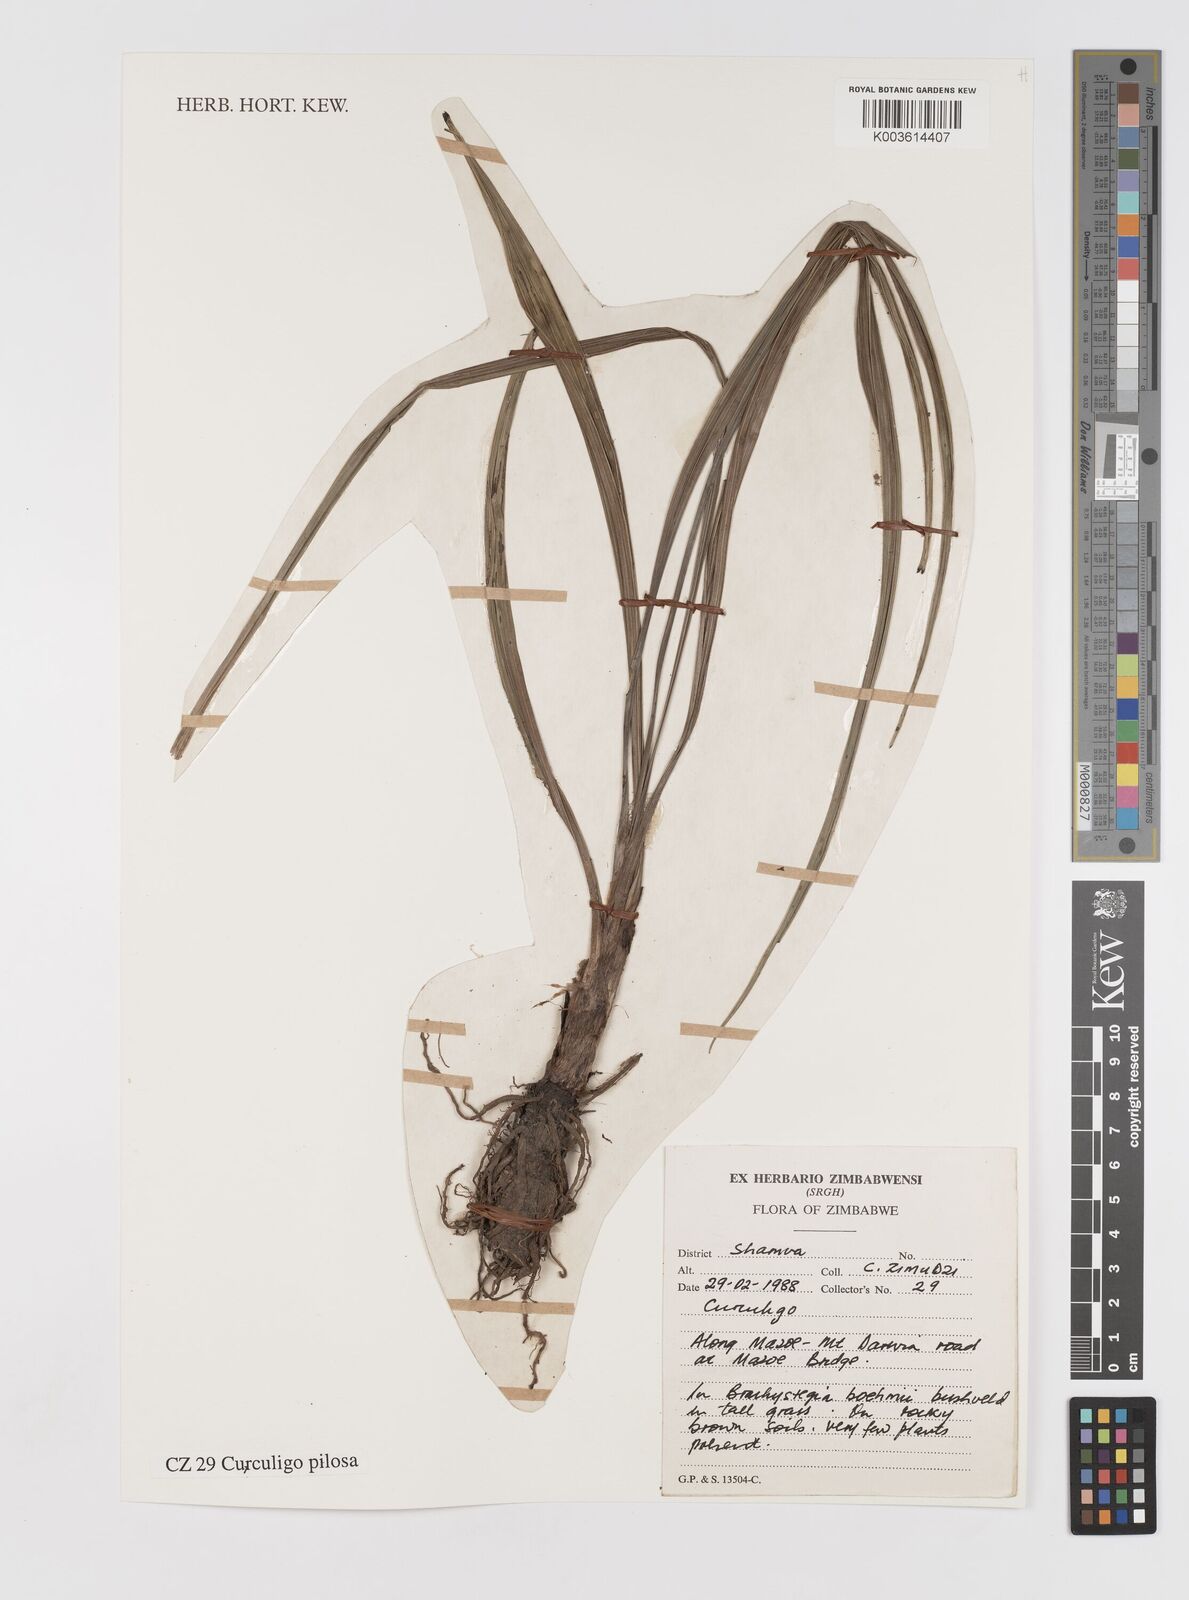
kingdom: Plantae
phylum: Tracheophyta
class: Liliopsida
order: Asparagales
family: Hypoxidaceae
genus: Curculigo
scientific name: Curculigo pilosa
